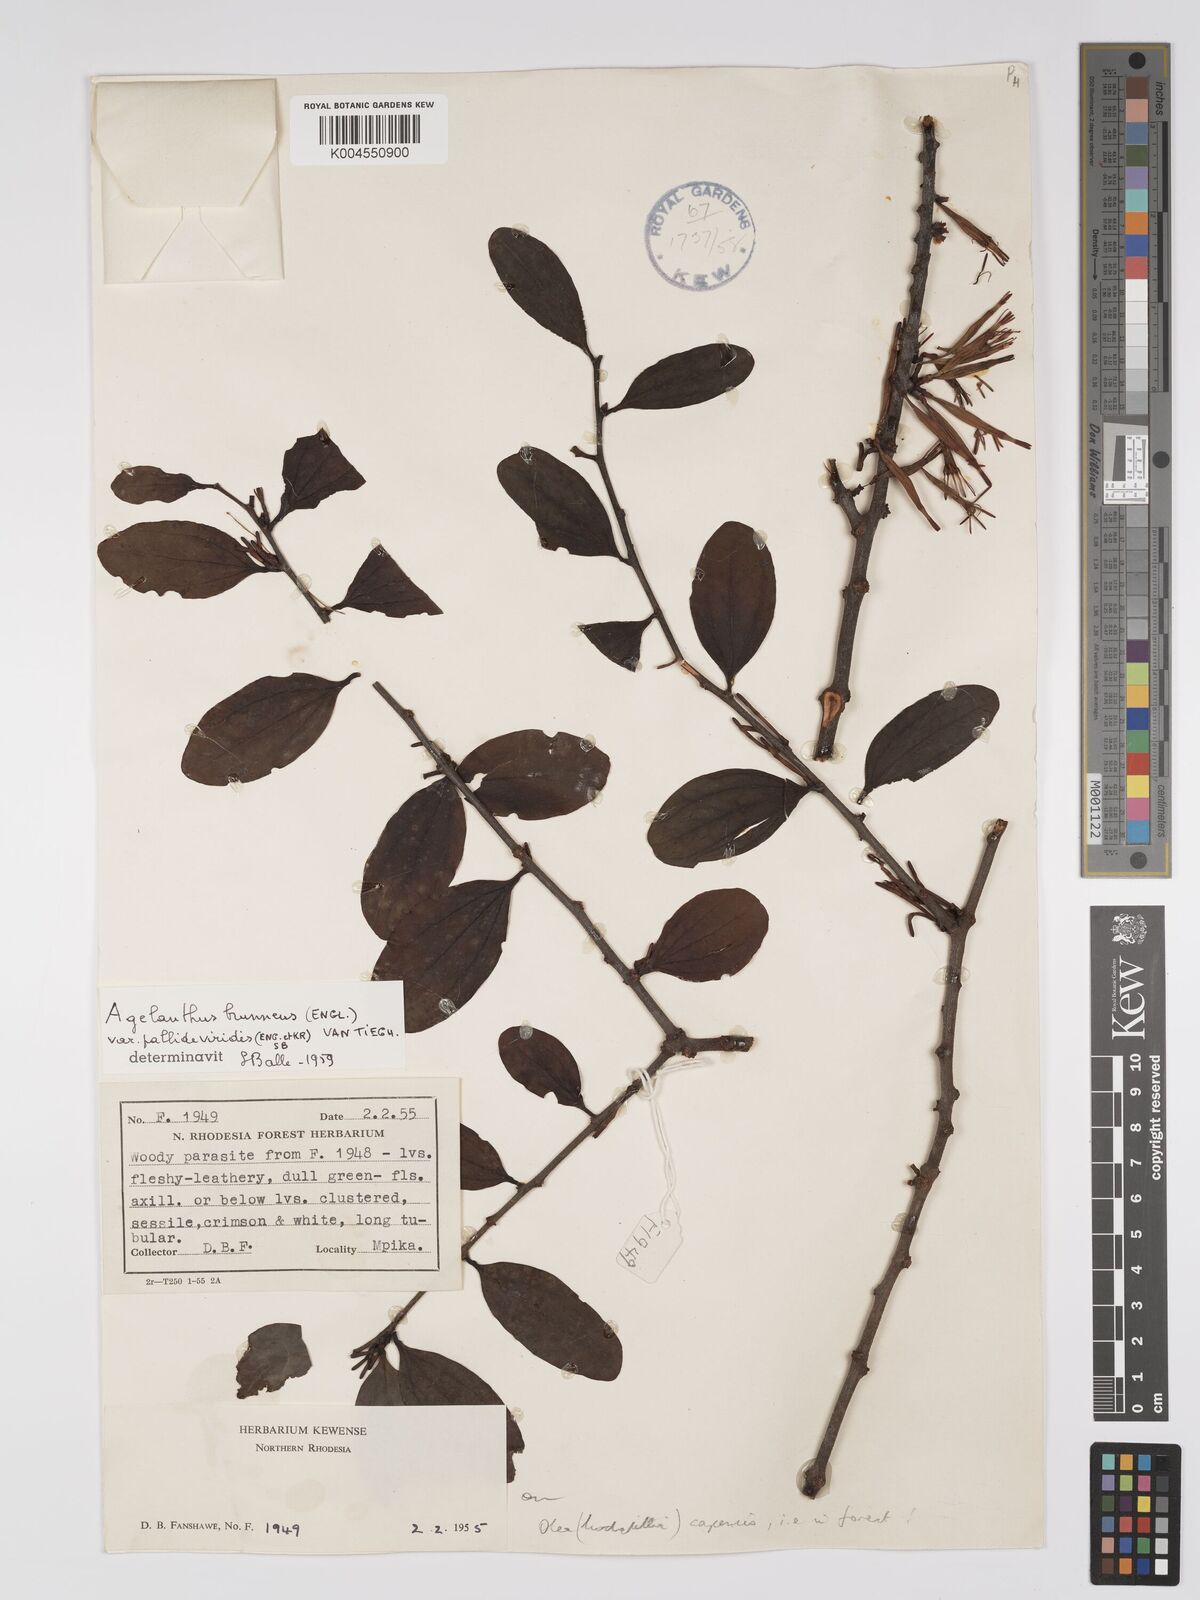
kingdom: Plantae
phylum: Tracheophyta
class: Magnoliopsida
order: Santalales
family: Loranthaceae
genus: Agelanthus
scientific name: Agelanthus zizyphifolius
